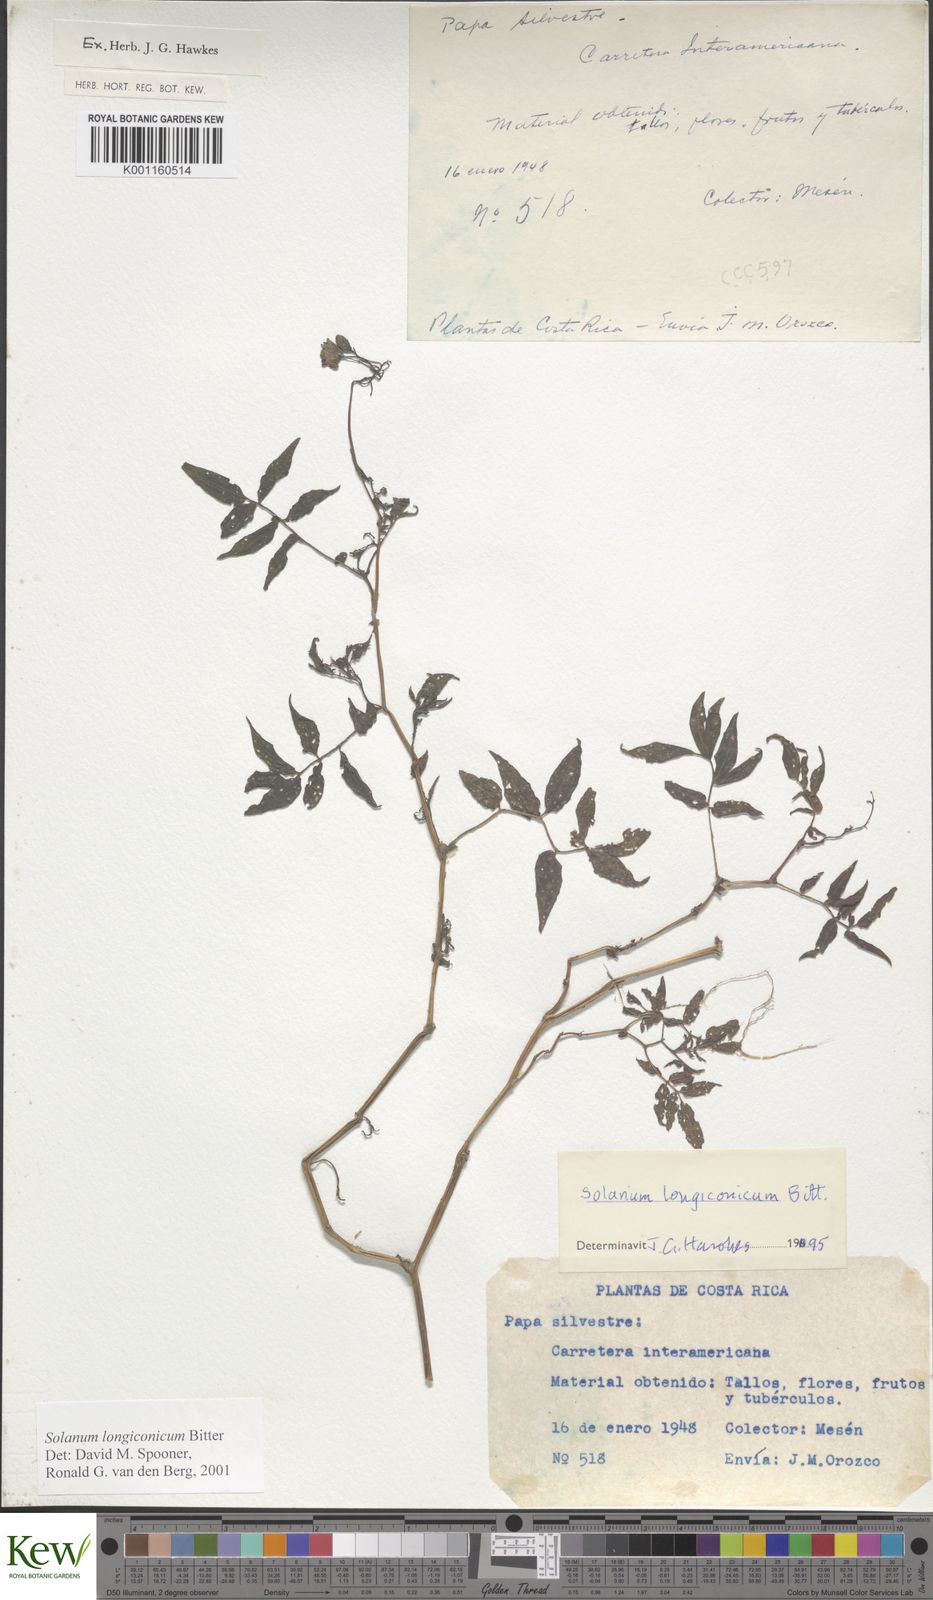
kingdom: Plantae
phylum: Tracheophyta
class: Magnoliopsida
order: Solanales
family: Solanaceae
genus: Solanum
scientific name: Solanum longiconicum
